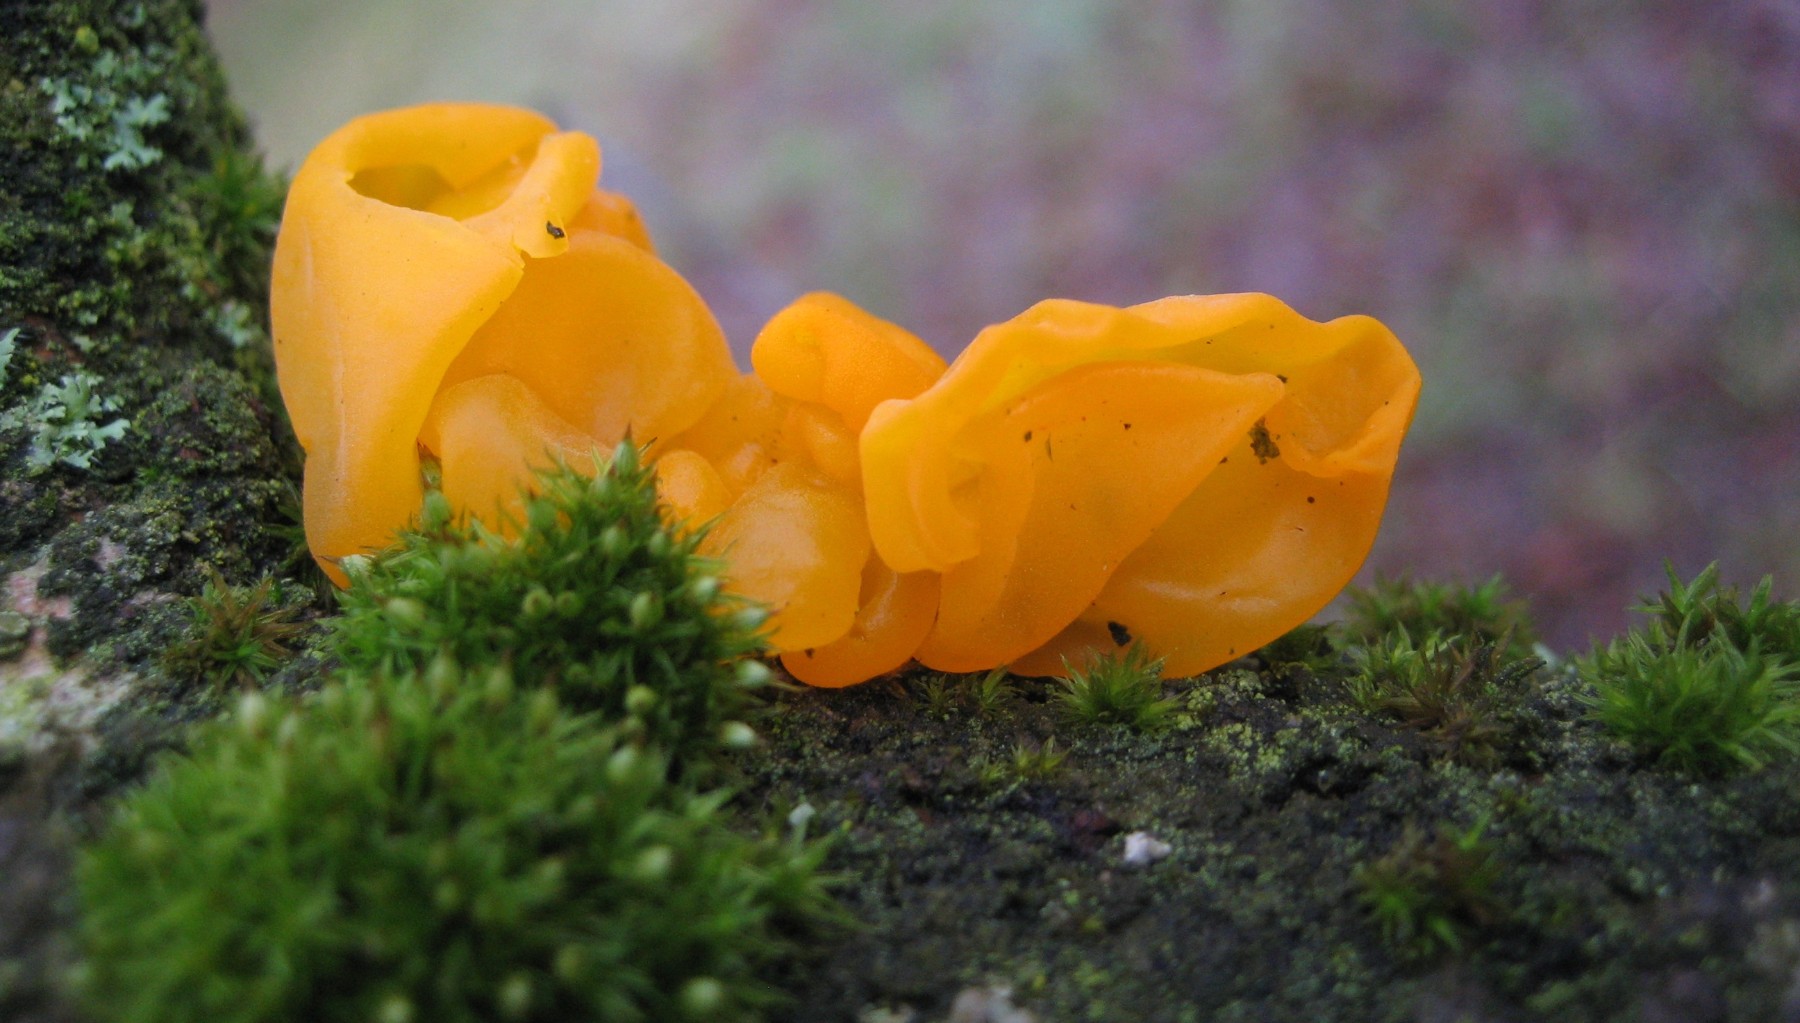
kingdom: Fungi
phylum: Basidiomycota
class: Tremellomycetes
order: Tremellales
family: Tremellaceae
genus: Tremella
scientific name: Tremella mesenterica
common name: gul bævresvamp
